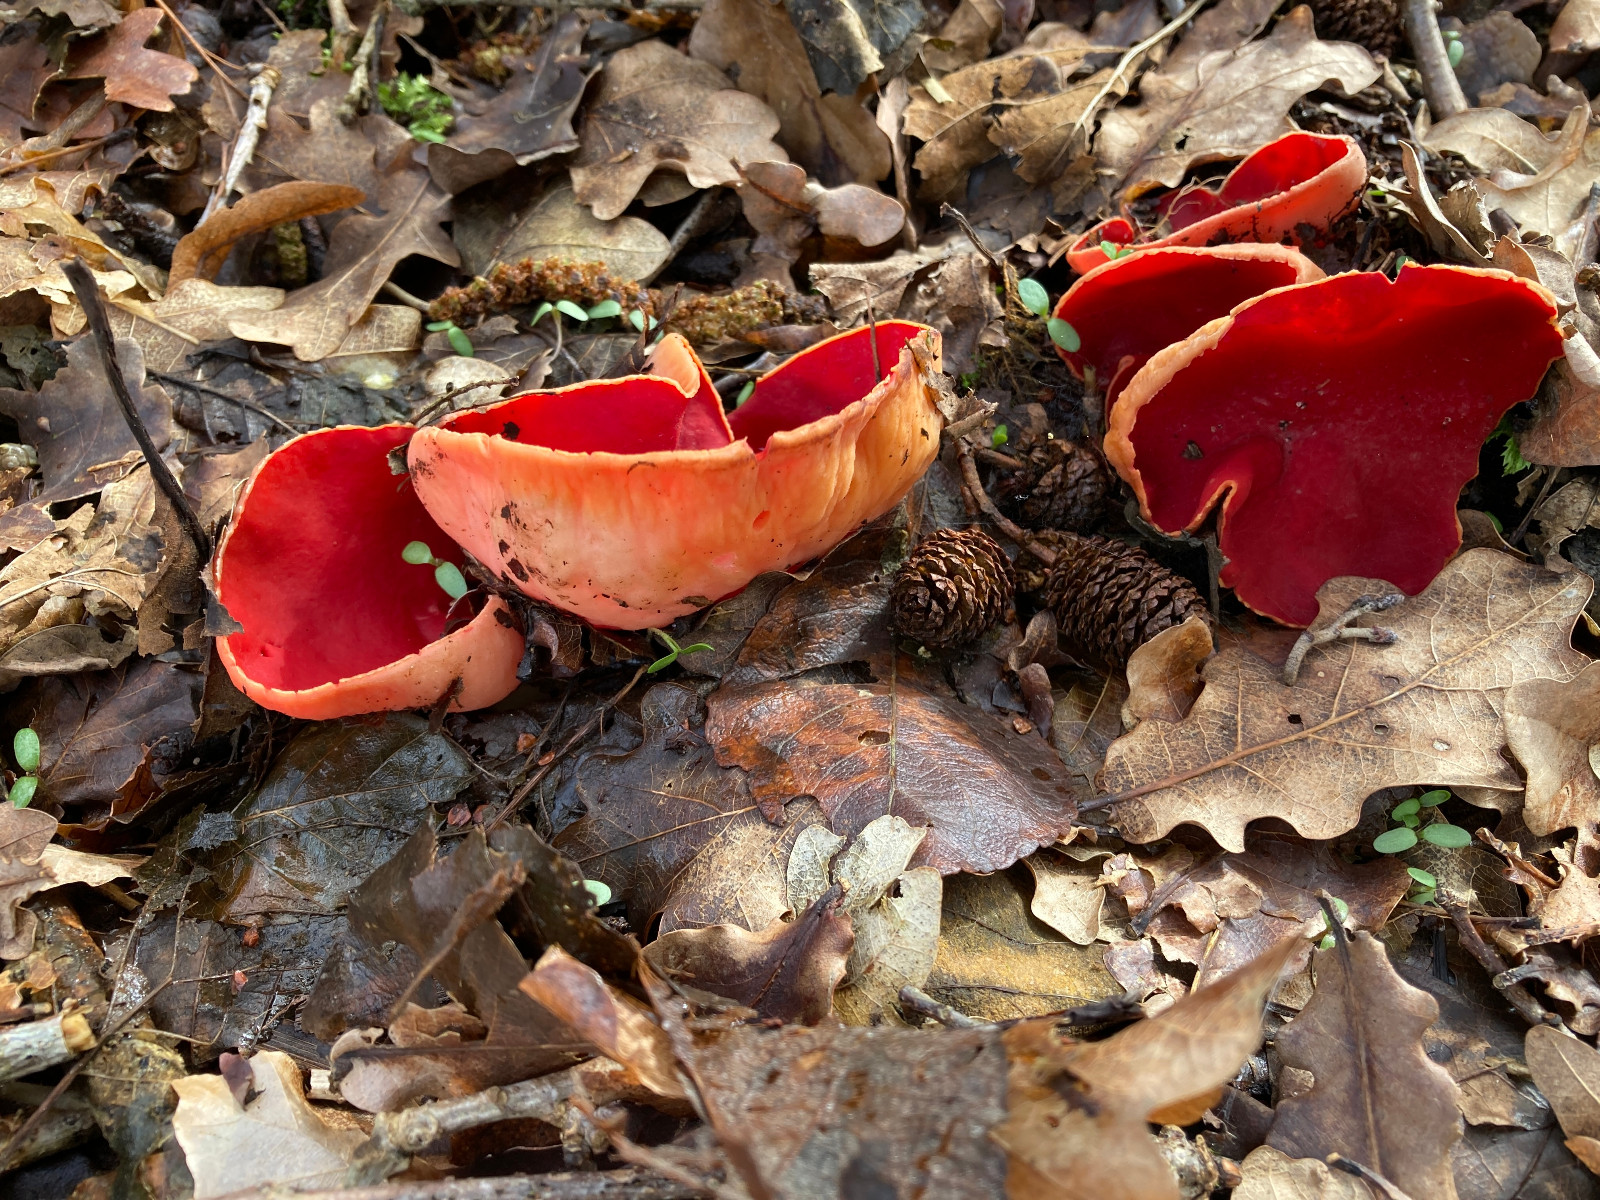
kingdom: Fungi
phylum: Ascomycota
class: Pezizomycetes
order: Pezizales
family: Sarcoscyphaceae
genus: Sarcoscypha
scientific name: Sarcoscypha austriaca
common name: krølhåret pragtbæger
